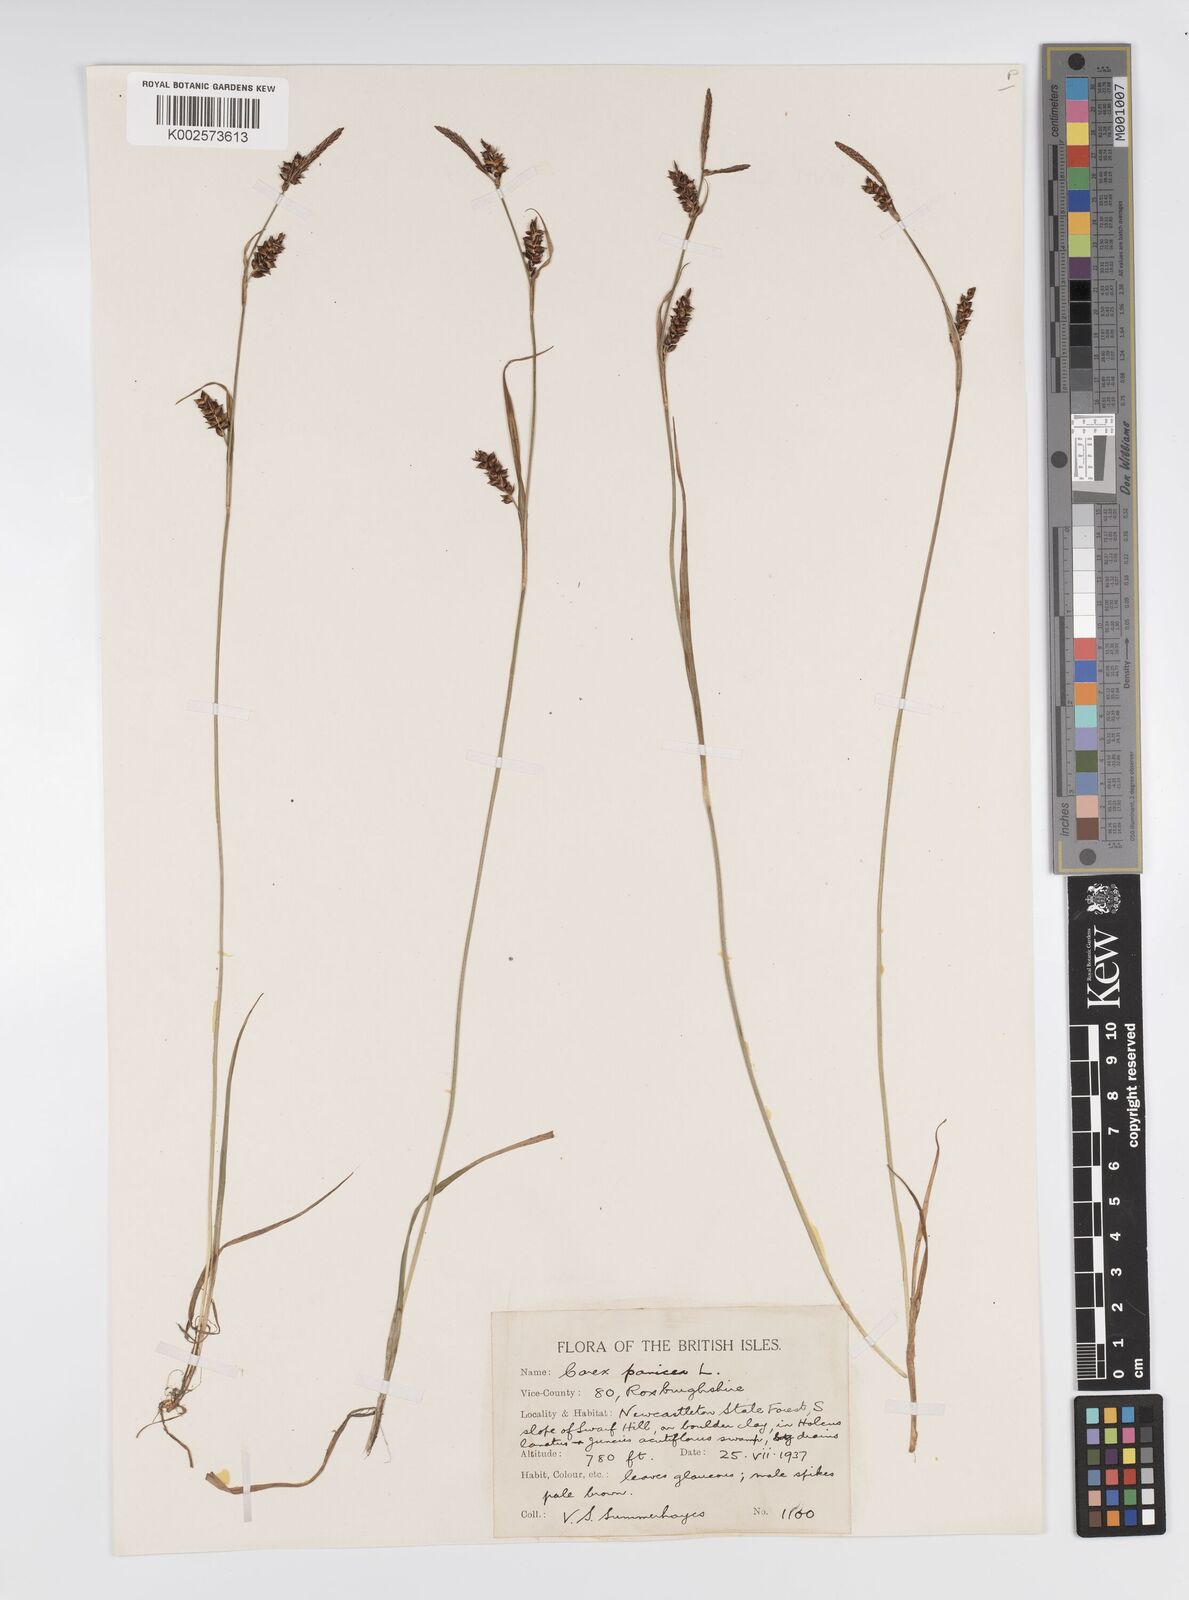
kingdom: Plantae
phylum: Tracheophyta
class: Liliopsida
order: Poales
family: Cyperaceae
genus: Carex
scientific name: Carex panicea
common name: Carnation sedge
